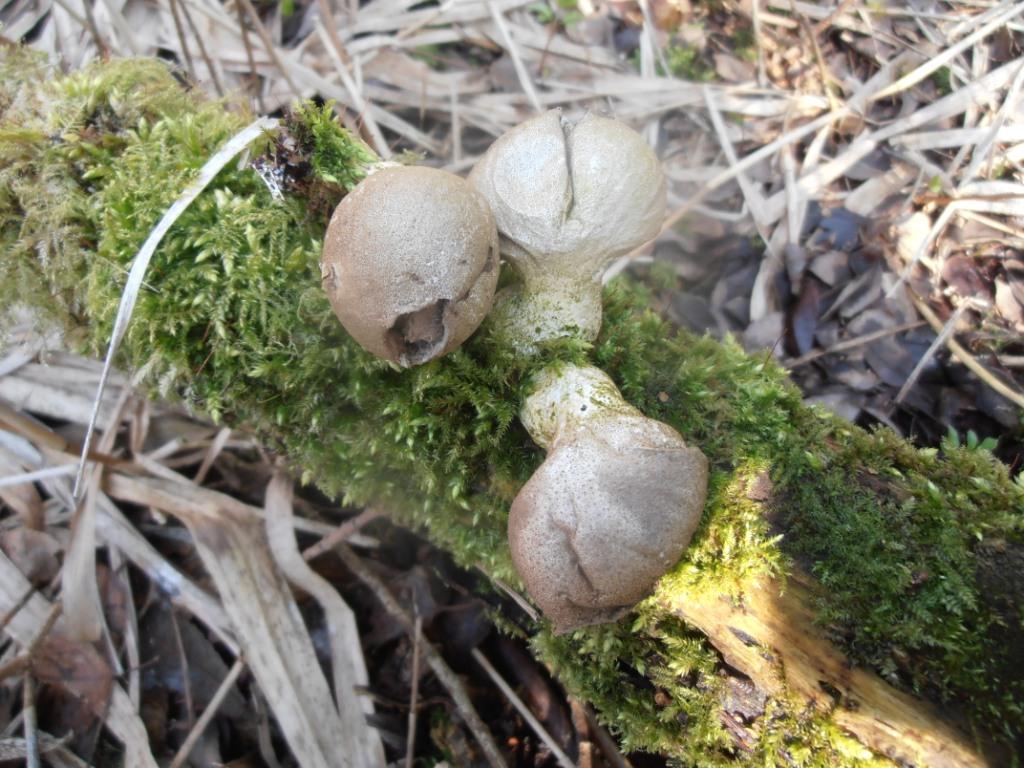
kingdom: Fungi
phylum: Basidiomycota
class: Agaricomycetes
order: Agaricales
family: Lycoperdaceae
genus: Apioperdon
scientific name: Apioperdon pyriforme
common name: pære-støvbold
